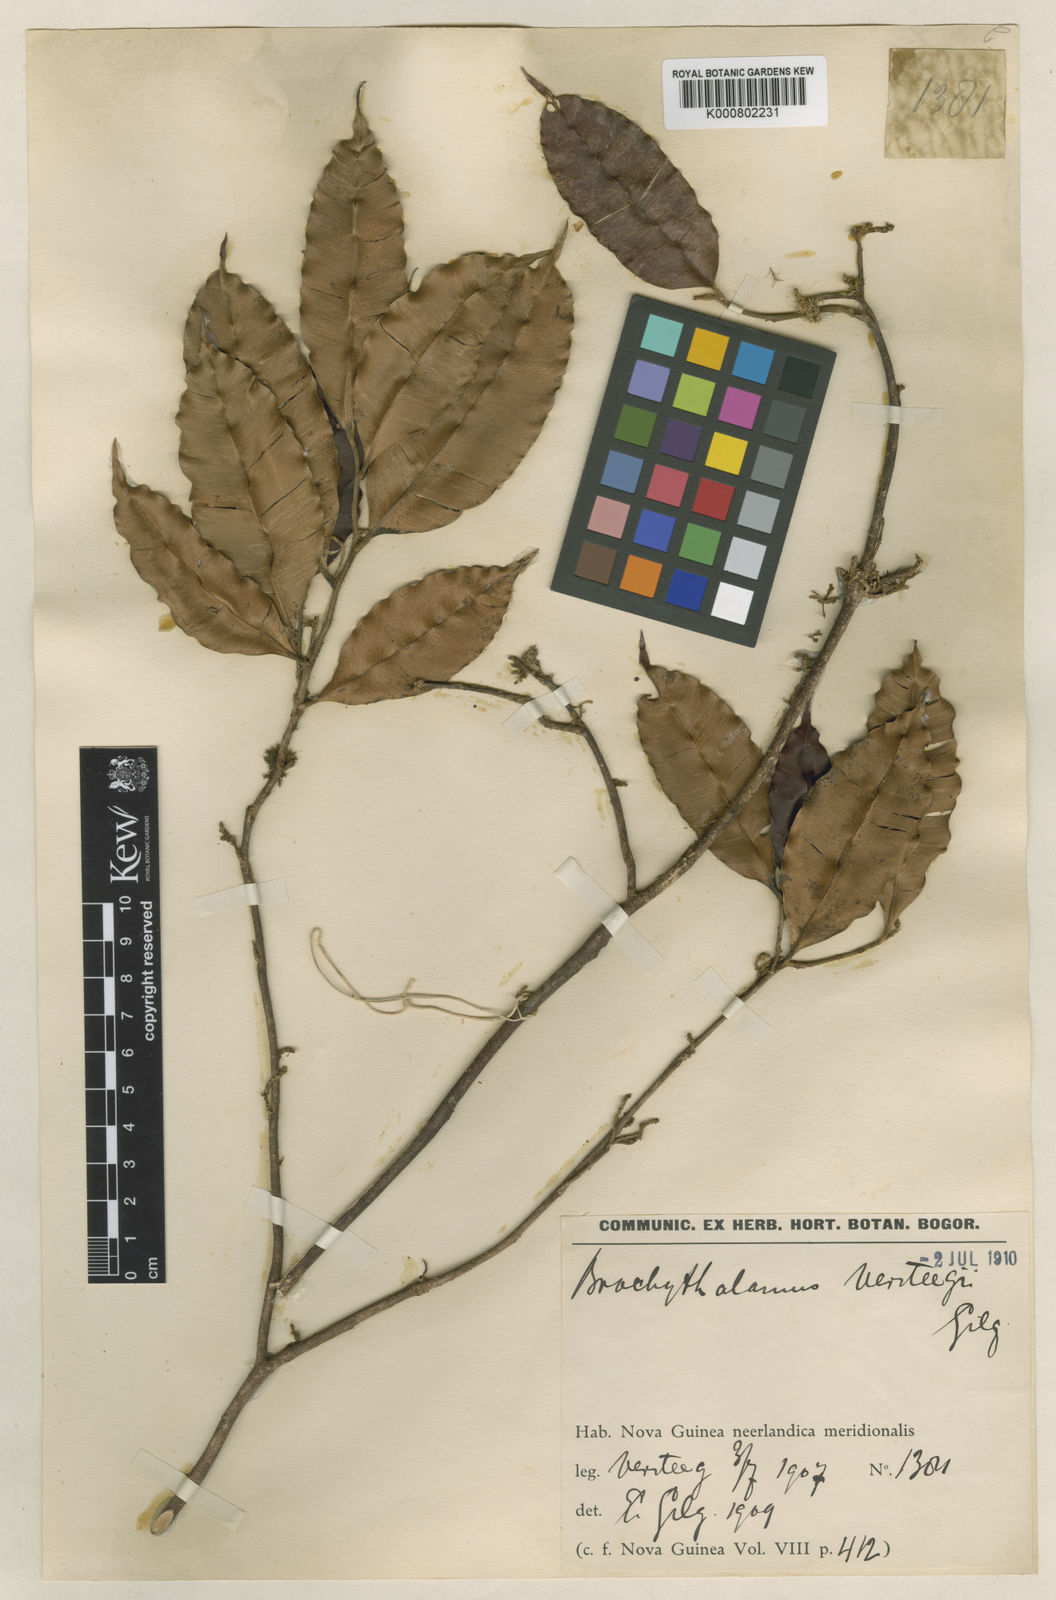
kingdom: Plantae
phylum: Tracheophyta
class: Magnoliopsida
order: Malvales
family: Thymelaeaceae
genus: Gyrinops
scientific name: Gyrinops versteegii
